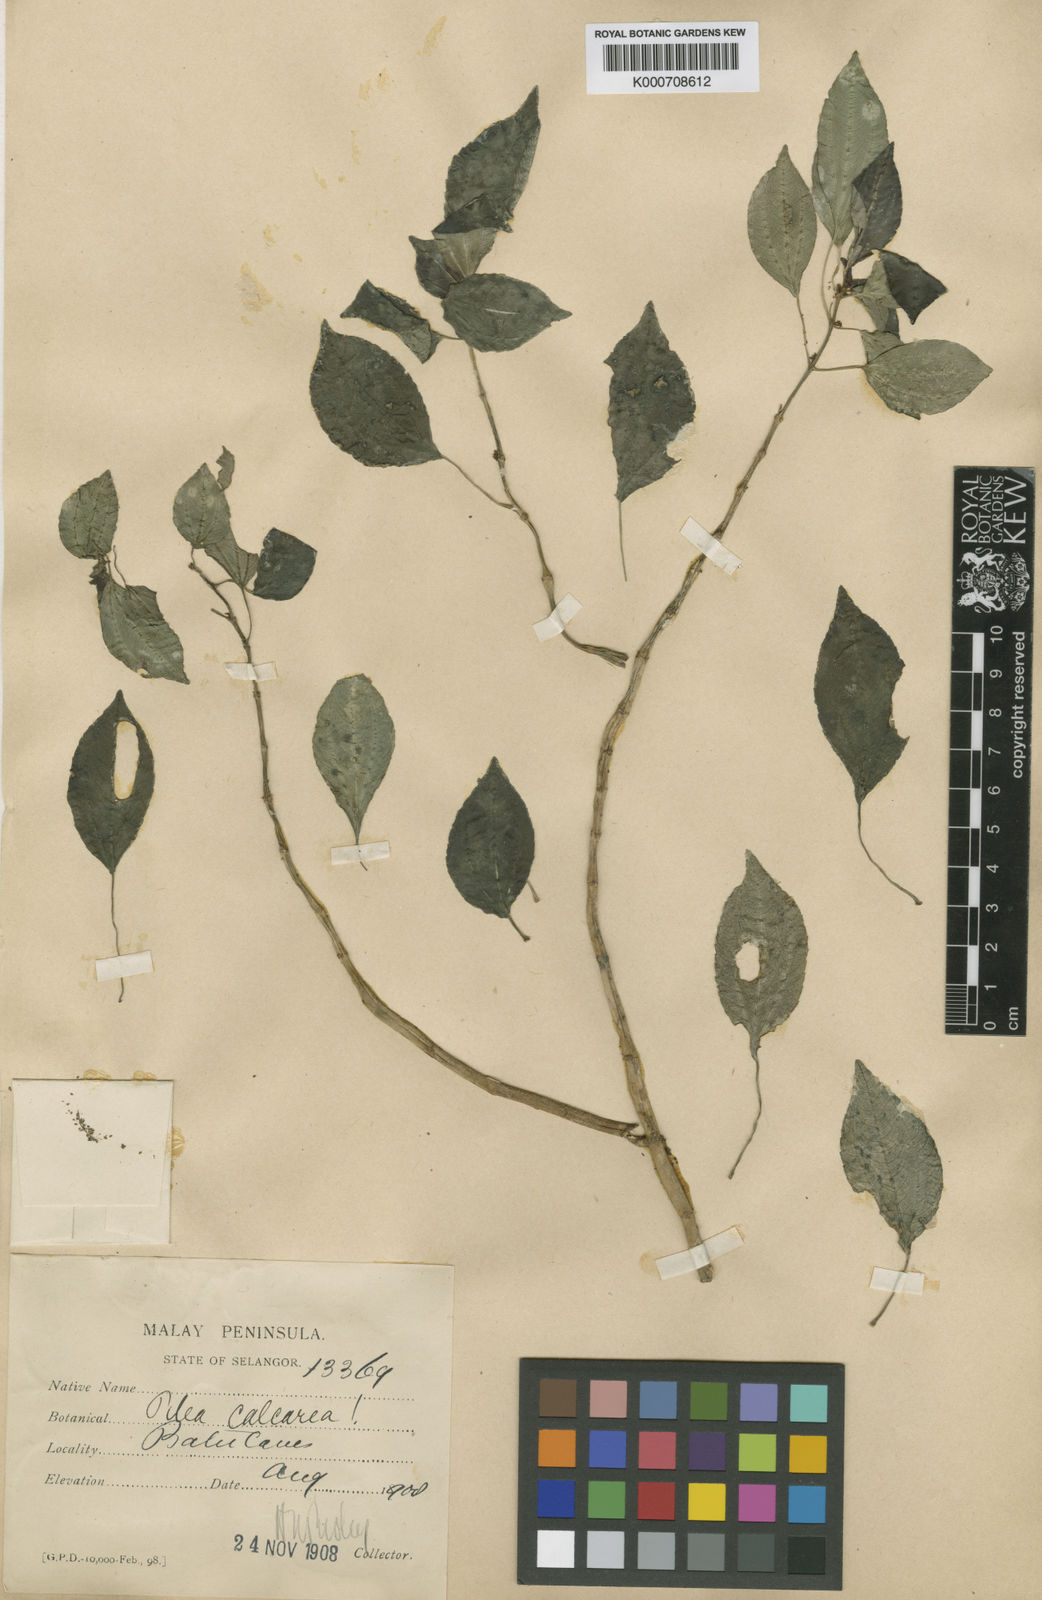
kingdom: Plantae
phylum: Tracheophyta
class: Magnoliopsida
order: Rosales
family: Urticaceae
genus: Pilea
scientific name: Pilea fruticosa
